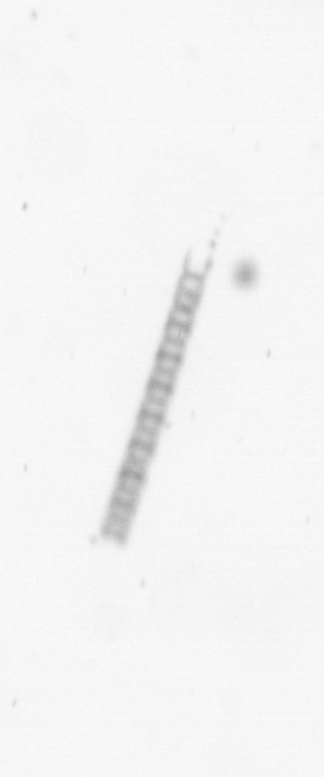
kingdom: Chromista
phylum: Ochrophyta
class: Bacillariophyceae
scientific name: Bacillariophyceae
